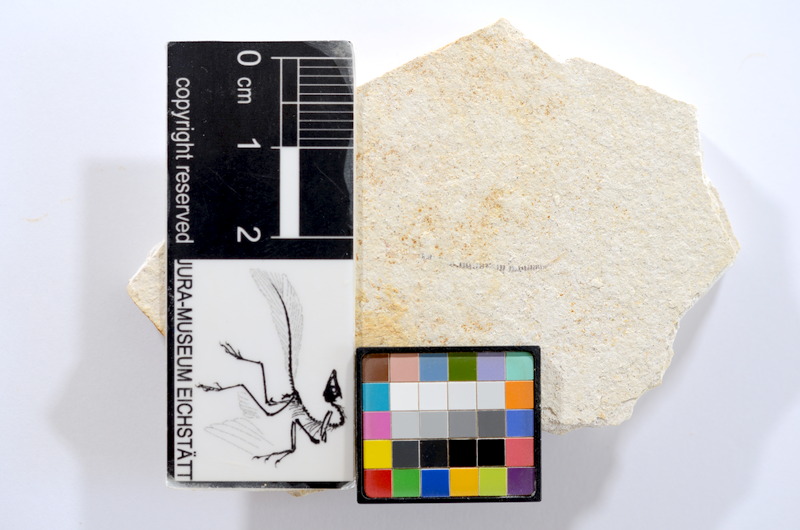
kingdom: Animalia
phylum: Chordata
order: Salmoniformes
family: Orthogonikleithridae
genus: Orthogonikleithrus
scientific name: Orthogonikleithrus hoelli
